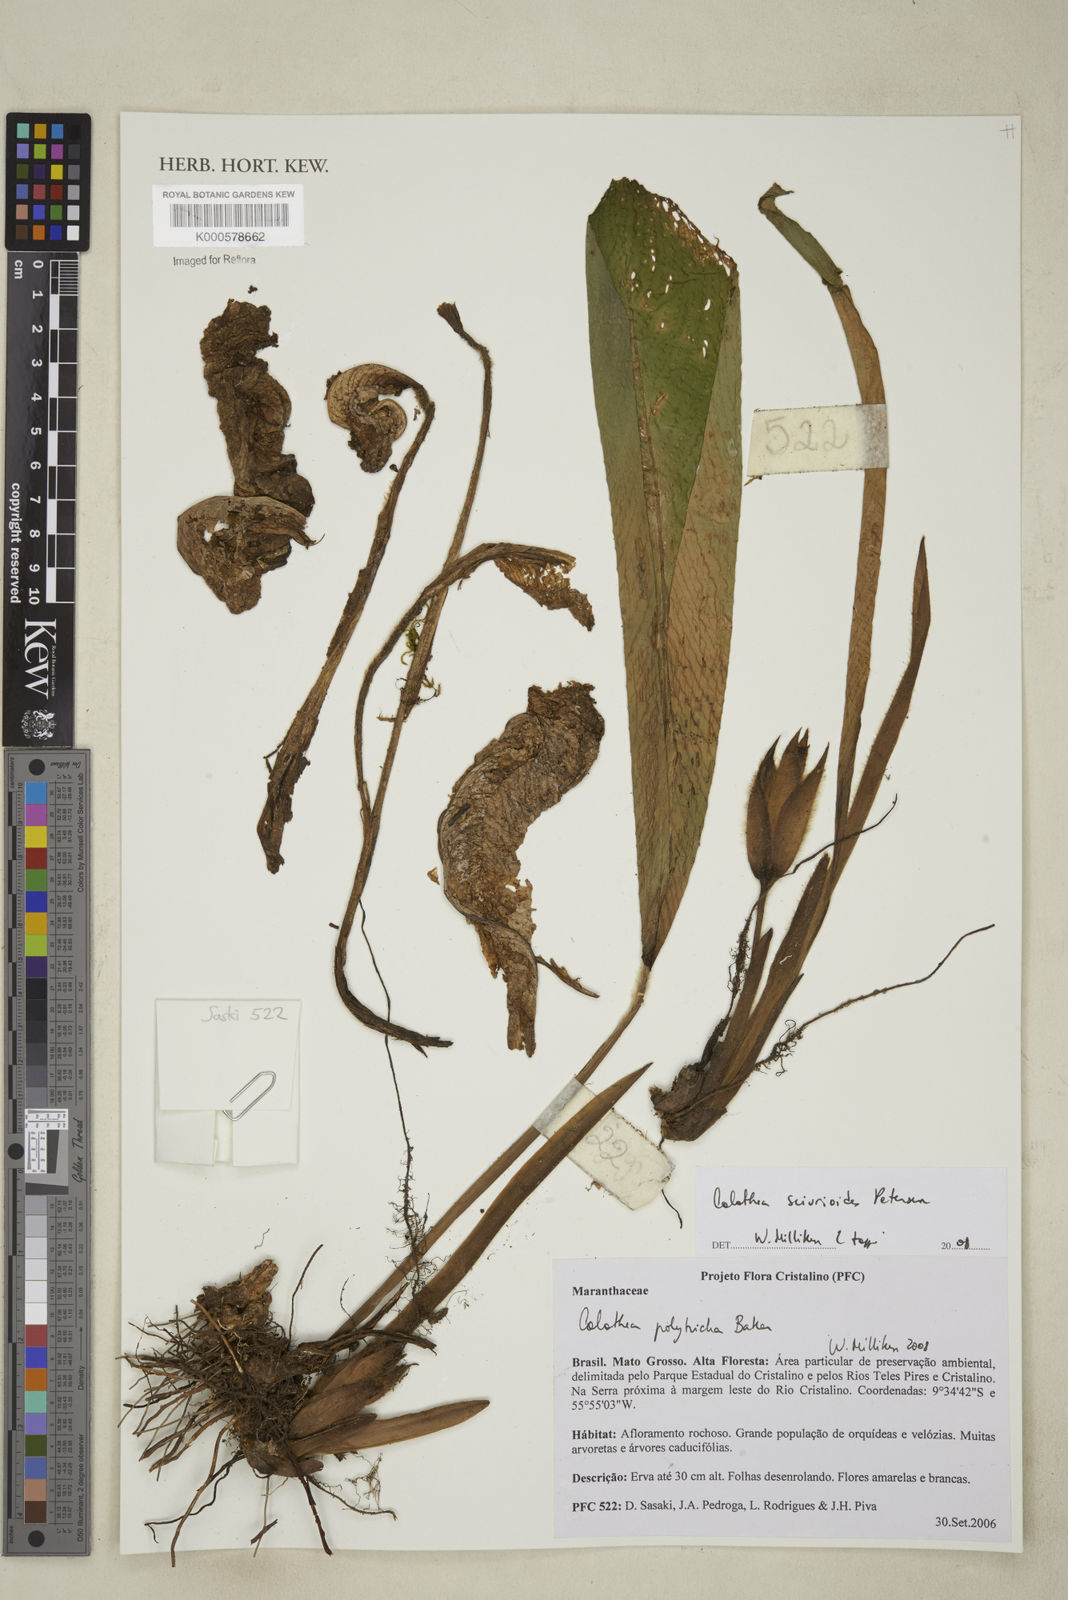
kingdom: Plantae
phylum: Tracheophyta
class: Liliopsida
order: Zingiberales
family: Marantaceae
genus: Goeppertia
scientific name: Goeppertia sciuroides
